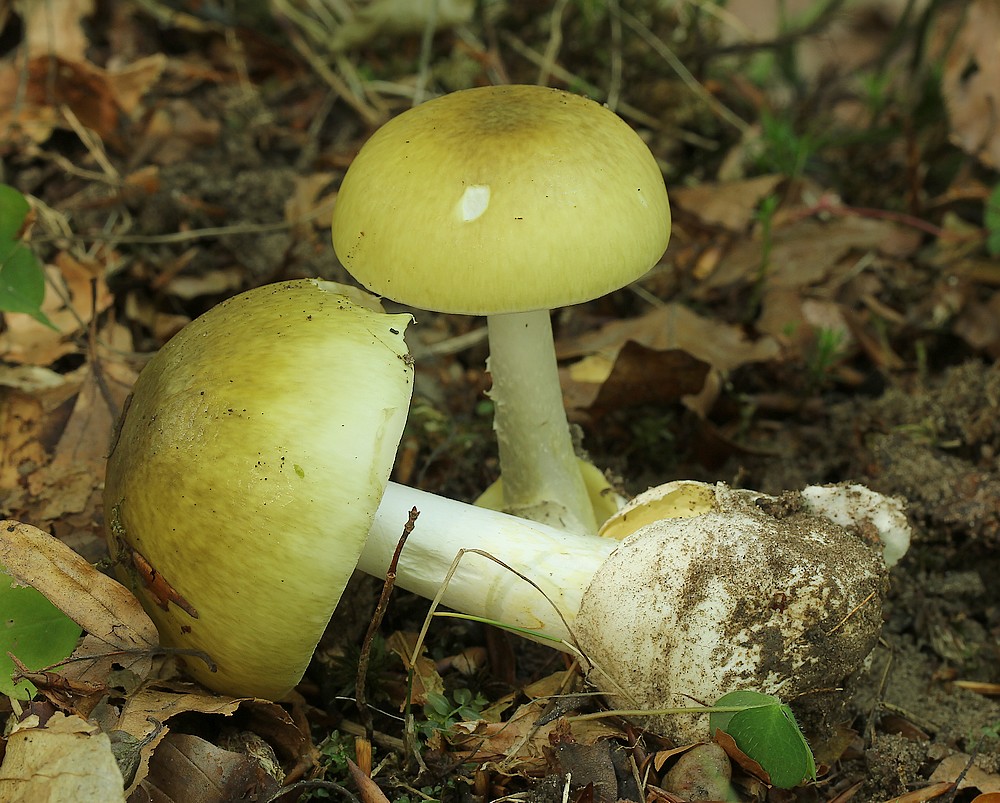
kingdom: Fungi
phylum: Basidiomycota
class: Agaricomycetes
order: Agaricales
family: Amanitaceae
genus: Amanita
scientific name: Amanita phalloides
